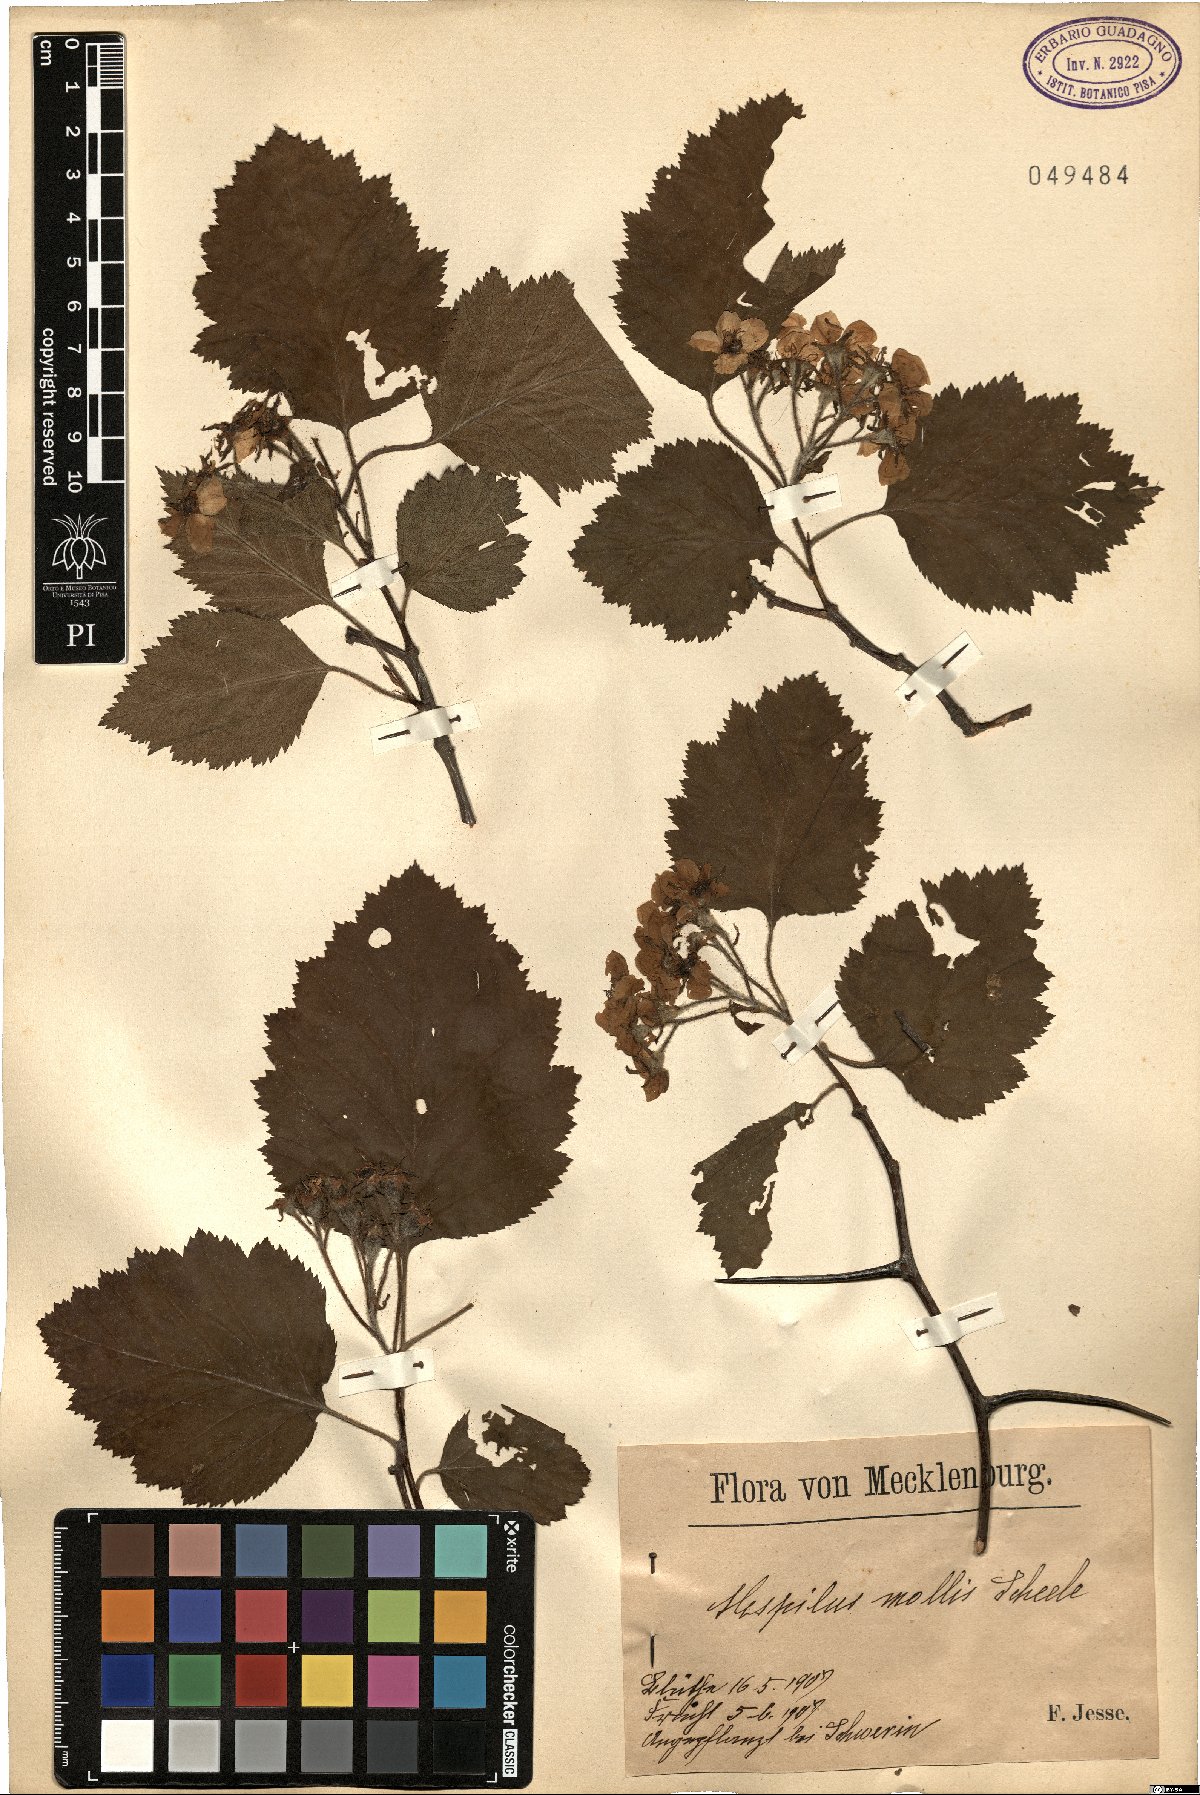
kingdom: Plantae
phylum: Tracheophyta
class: Magnoliopsida
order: Rosales
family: Rosaceae
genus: Mespilus
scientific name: Mespilus mollis
